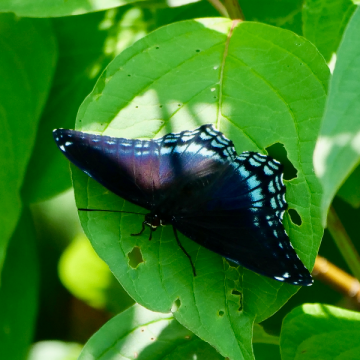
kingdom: Animalia
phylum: Arthropoda
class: Insecta
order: Lepidoptera
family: Nymphalidae
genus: Limenitis
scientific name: Limenitis arthemis
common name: Red-spotted Admiral
